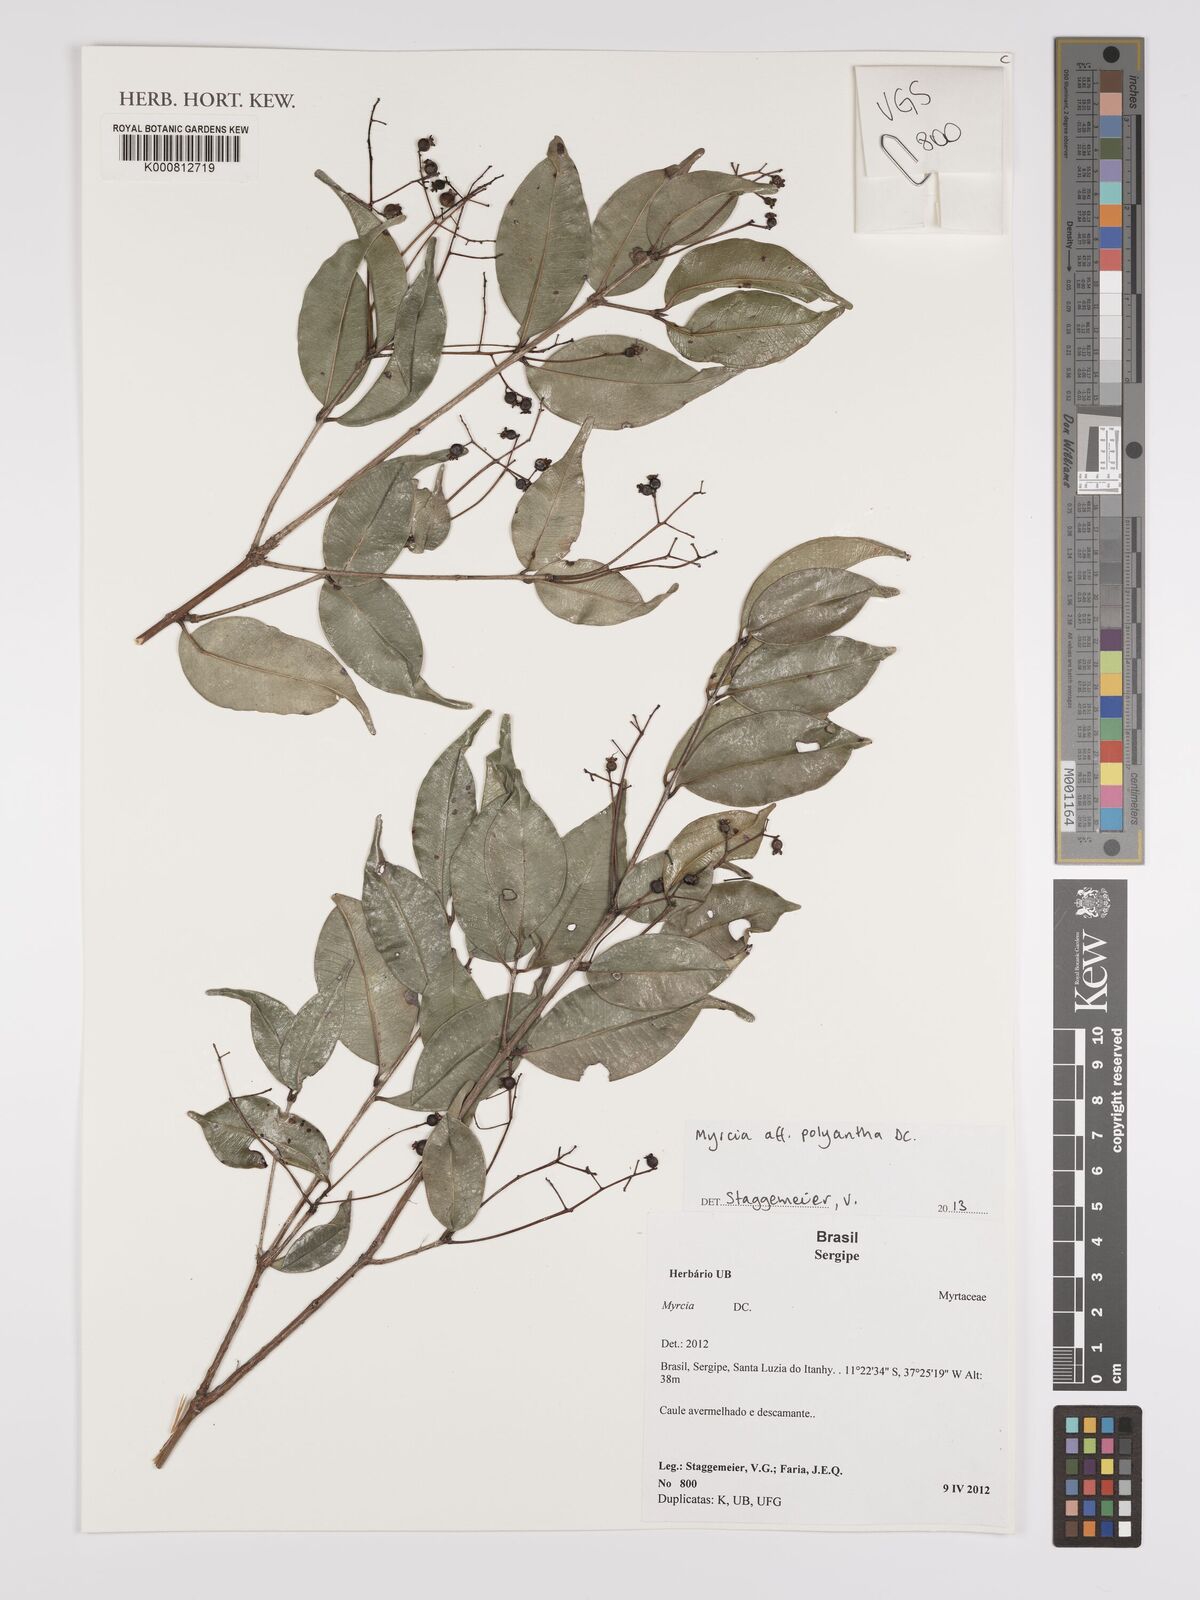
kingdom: Plantae
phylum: Tracheophyta
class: Magnoliopsida
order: Myrtales
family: Myrtaceae
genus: Myrcia
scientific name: Myrcia neopolyantha
